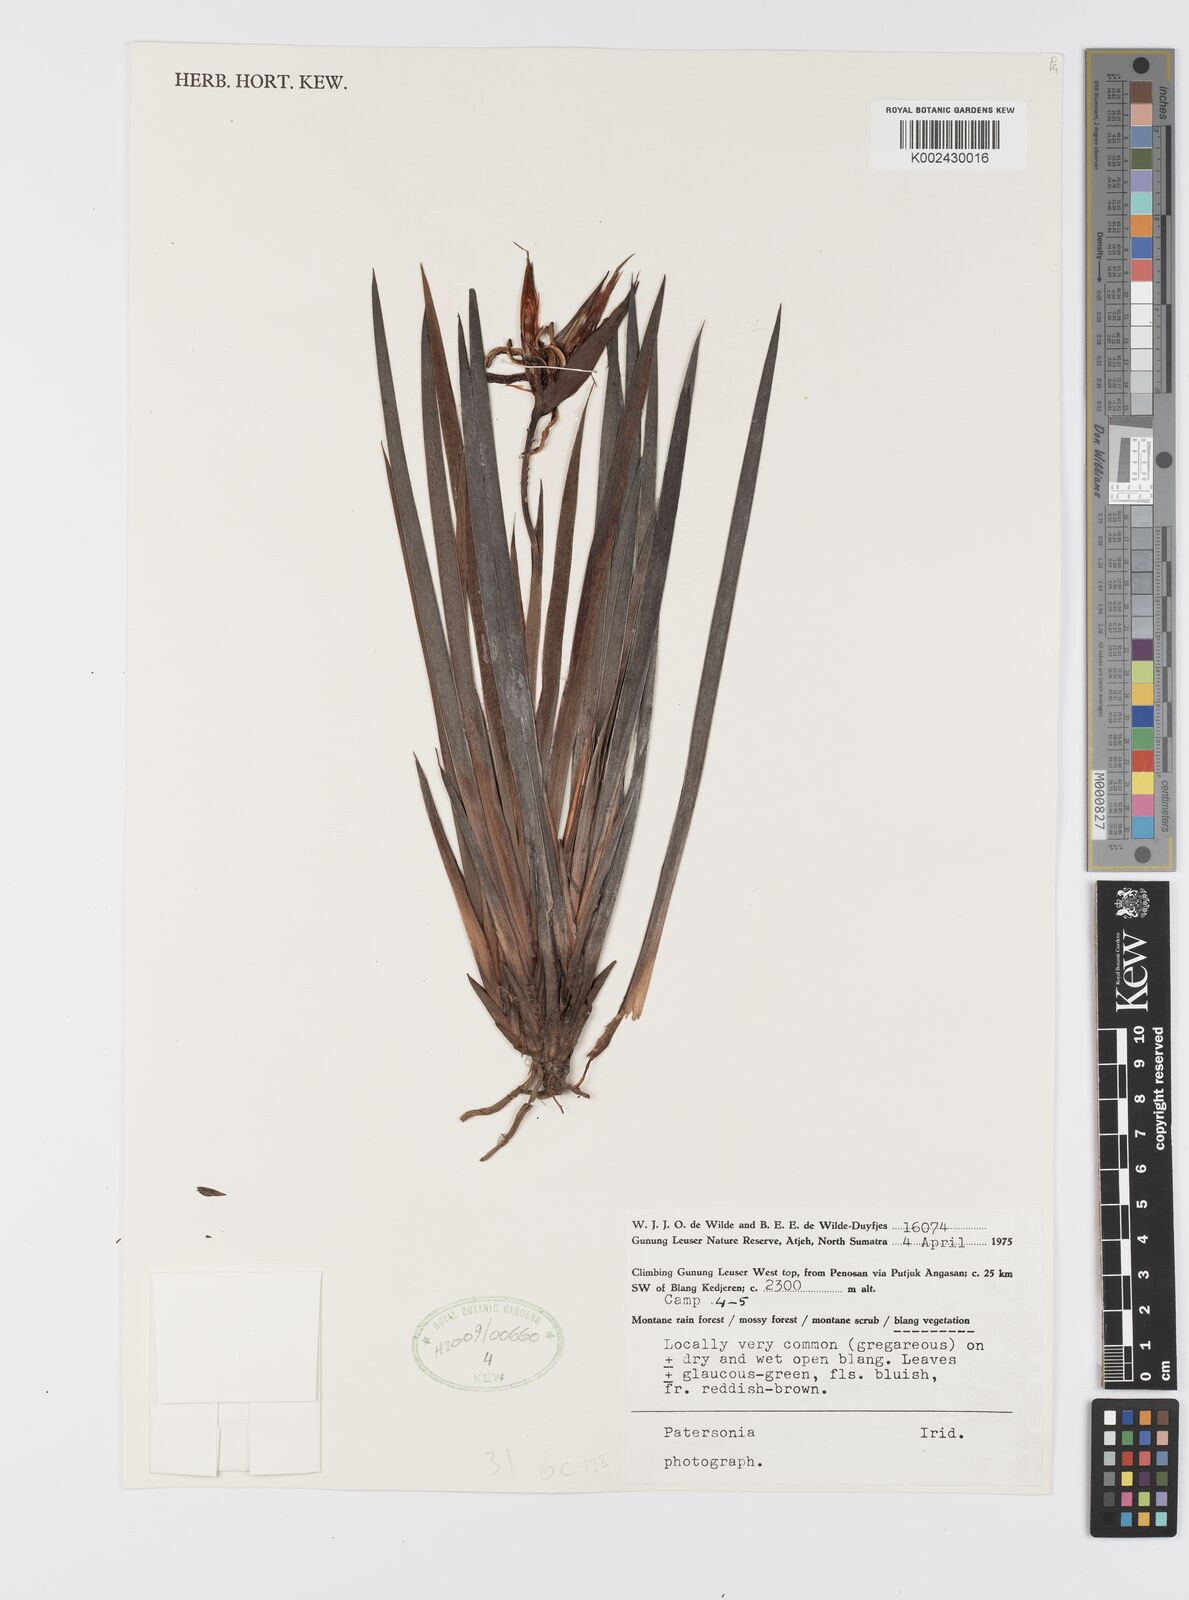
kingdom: Plantae
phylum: Tracheophyta
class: Liliopsida
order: Asparagales
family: Iridaceae
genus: Patersonia
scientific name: Patersonia
